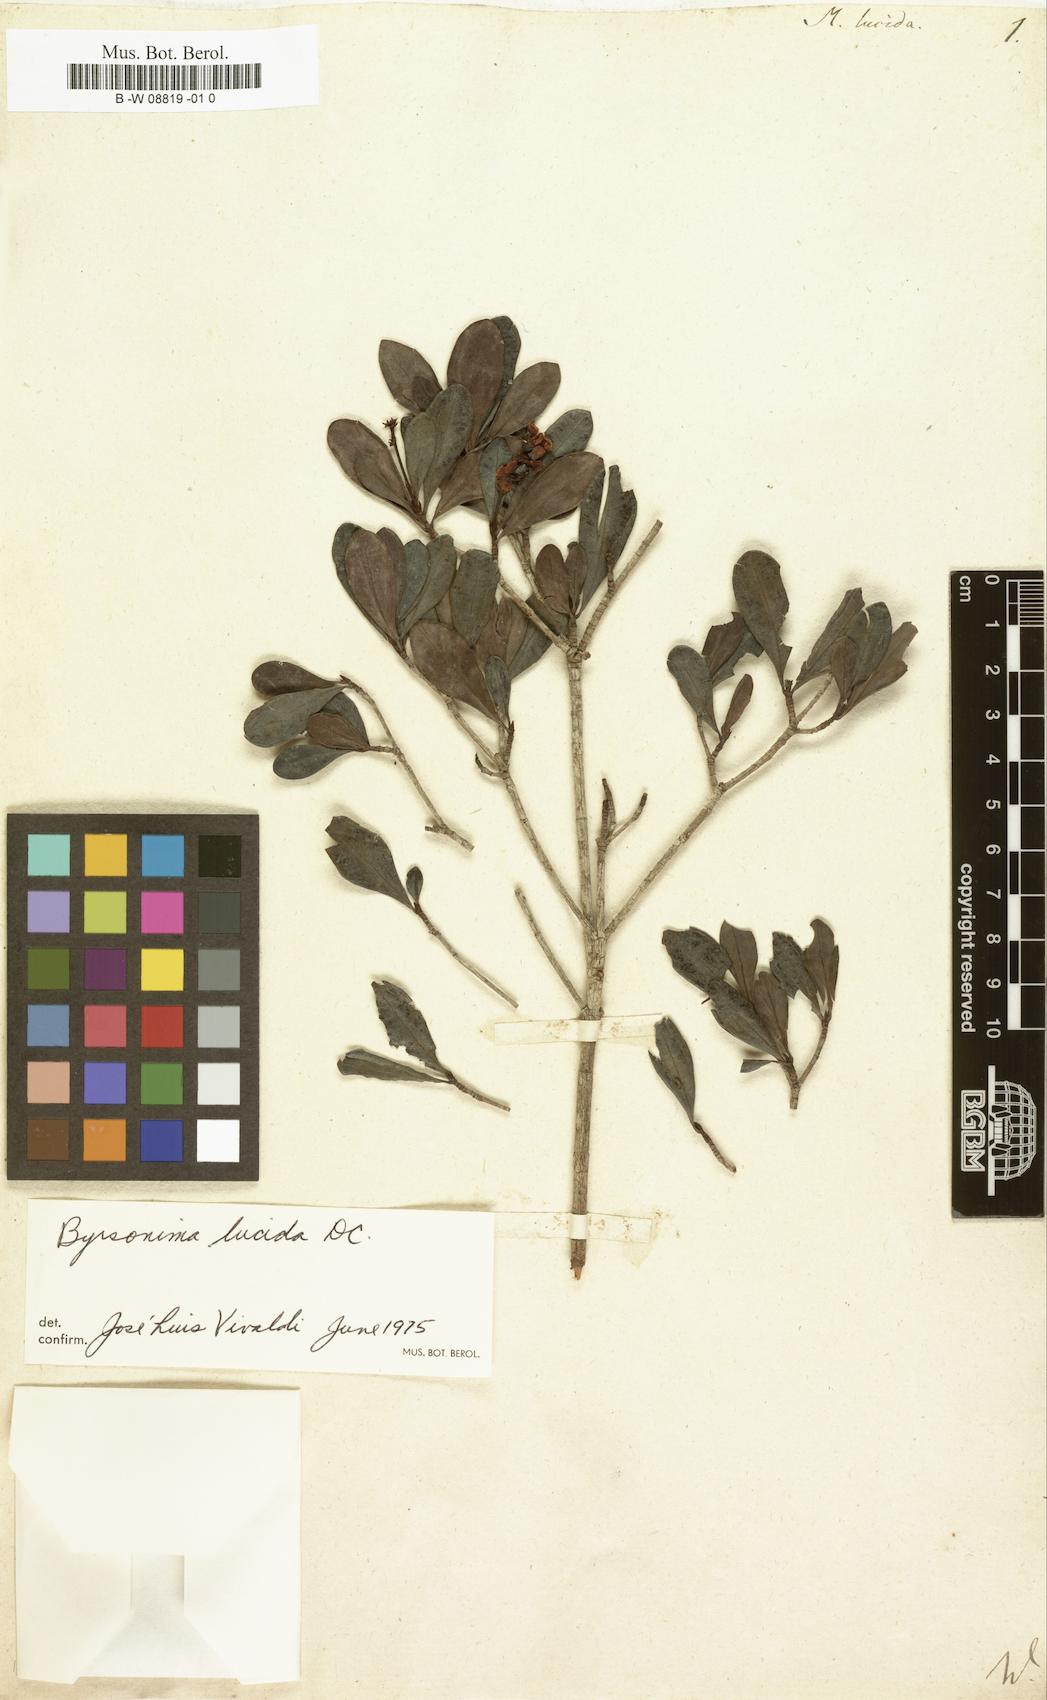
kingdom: Plantae
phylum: Tracheophyta
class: Magnoliopsida
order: Malpighiales
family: Malpighiaceae
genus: Byrsonima
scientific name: Byrsonima lucida
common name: Clam-cherry
